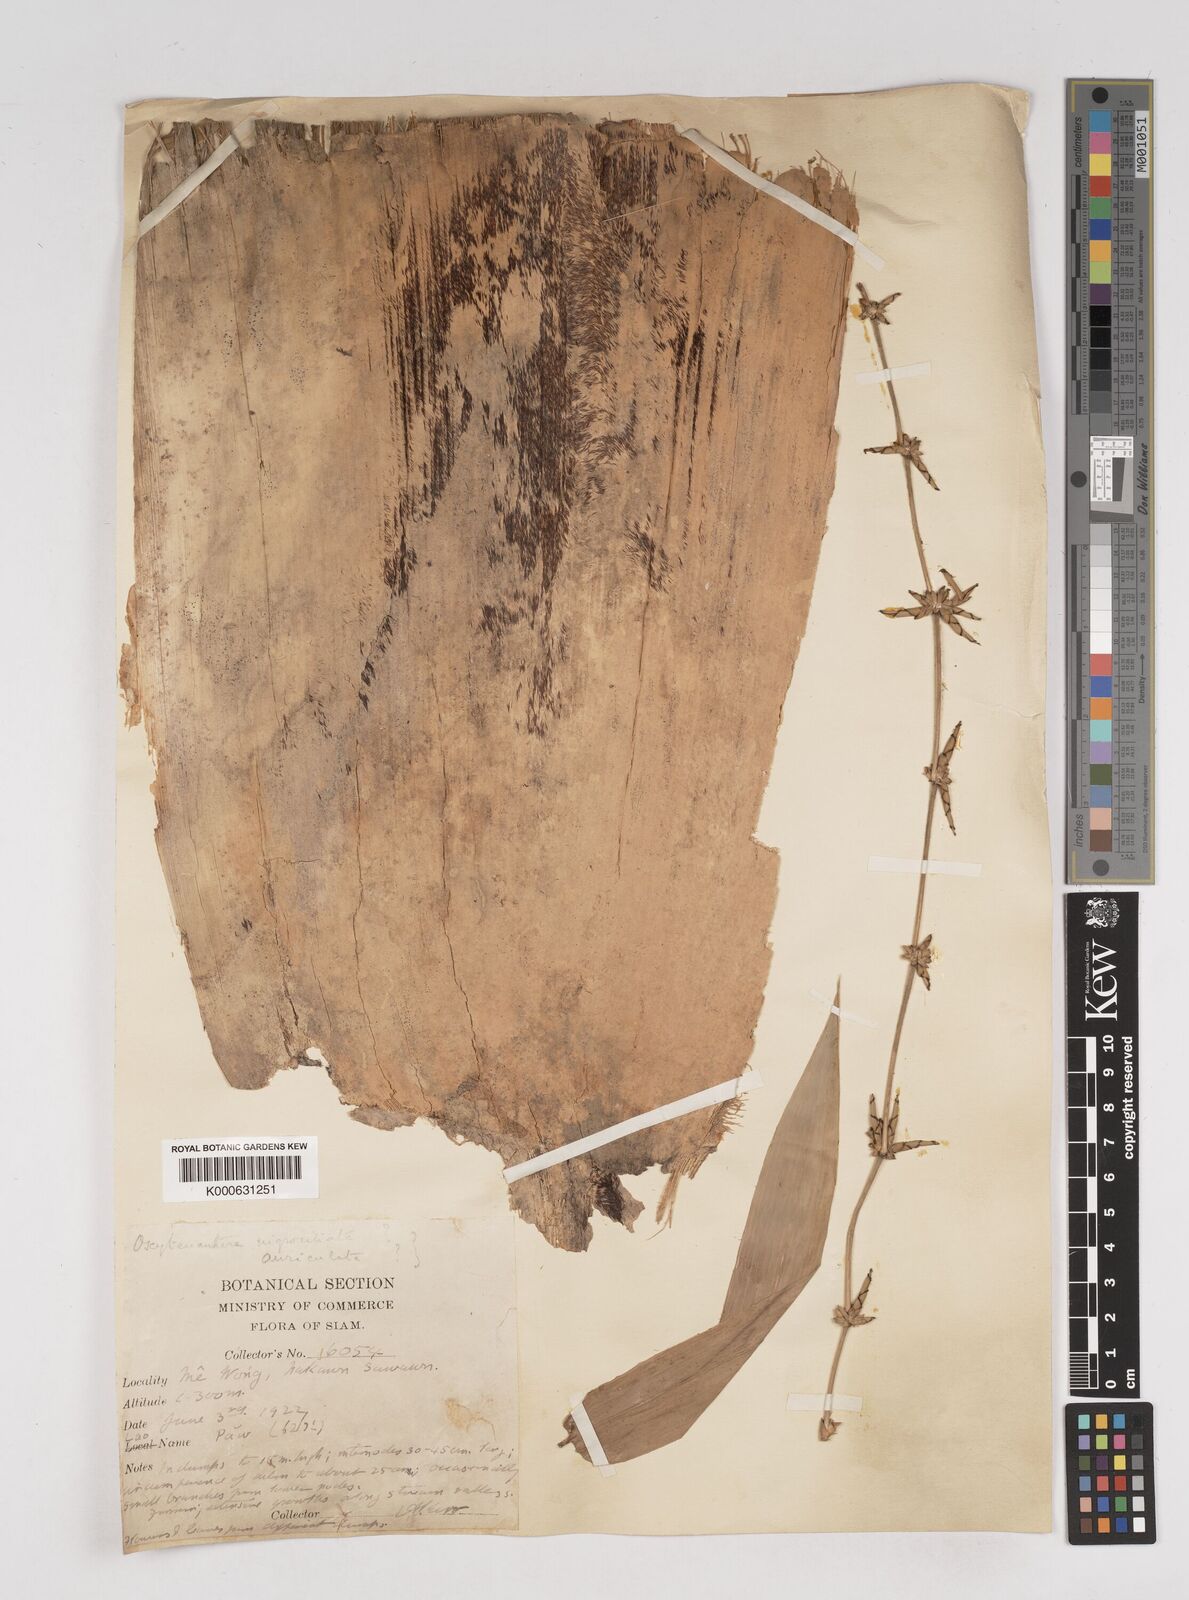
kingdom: Plantae
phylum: Tracheophyta
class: Liliopsida
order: Poales
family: Poaceae
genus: Gigantochloa
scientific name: Gigantochloa
